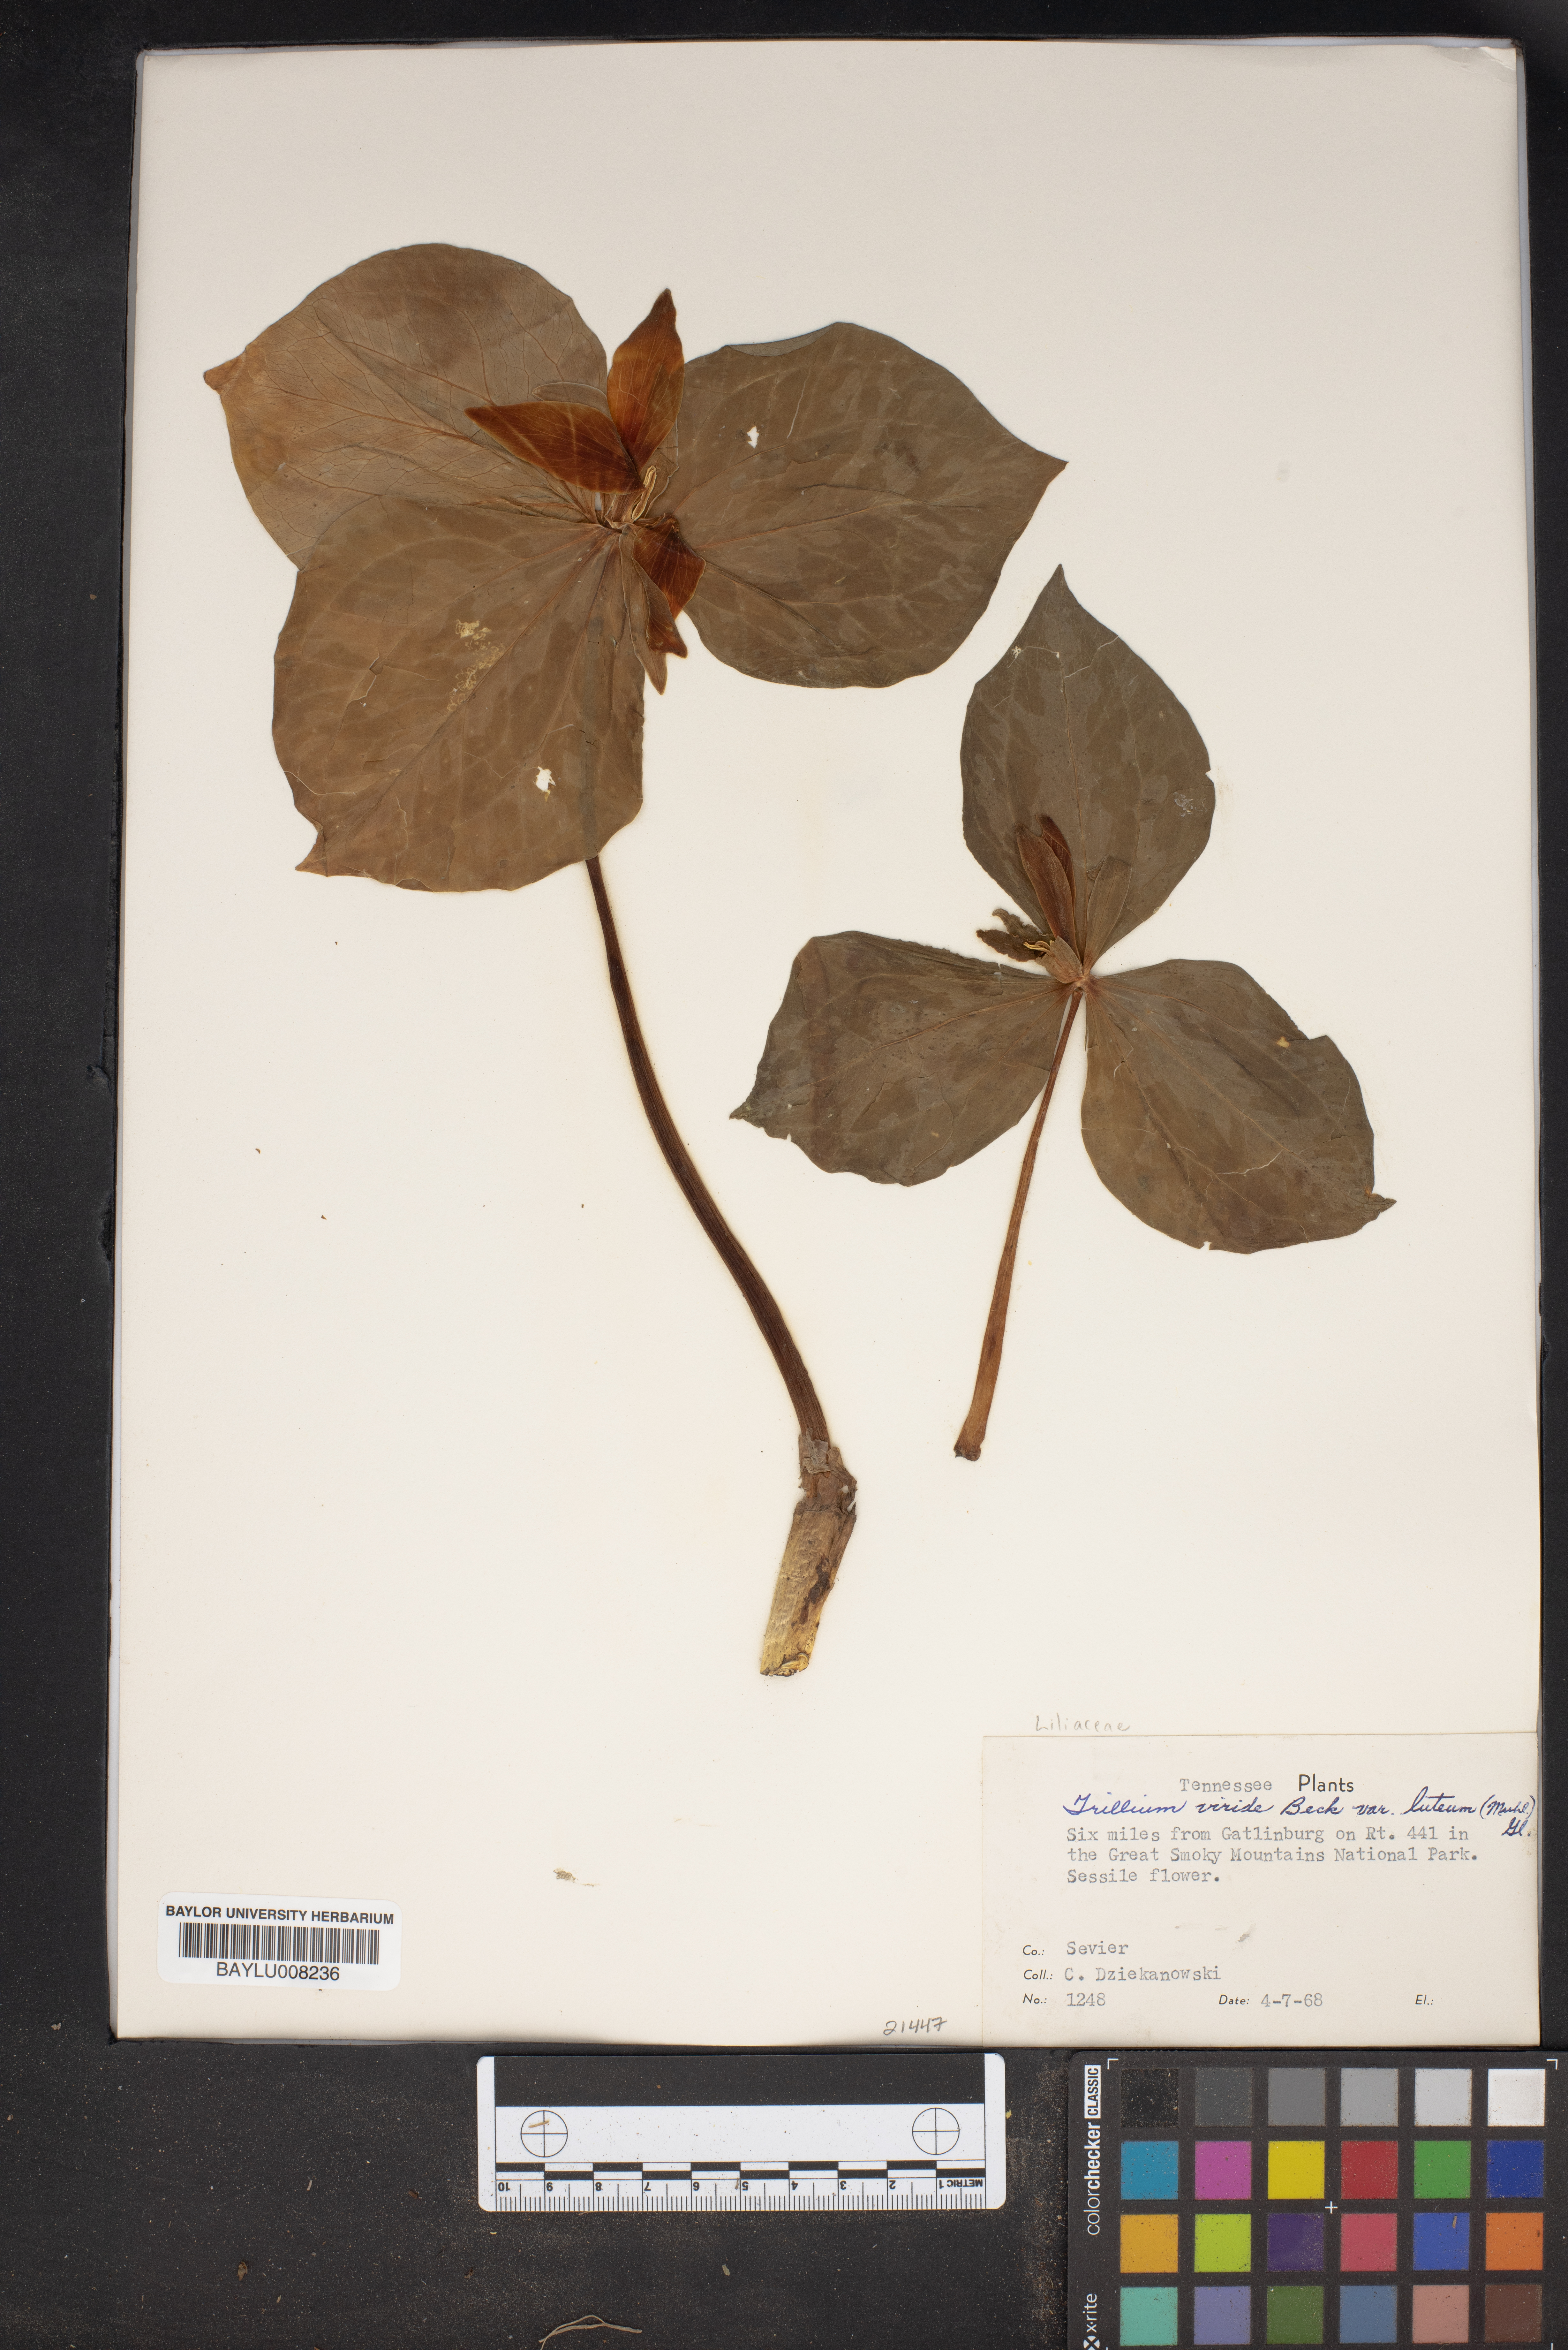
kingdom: Plantae
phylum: Tracheophyta
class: Liliopsida
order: Liliales
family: Melanthiaceae
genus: Trillium
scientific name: Trillium luteum
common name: Wax trillium
